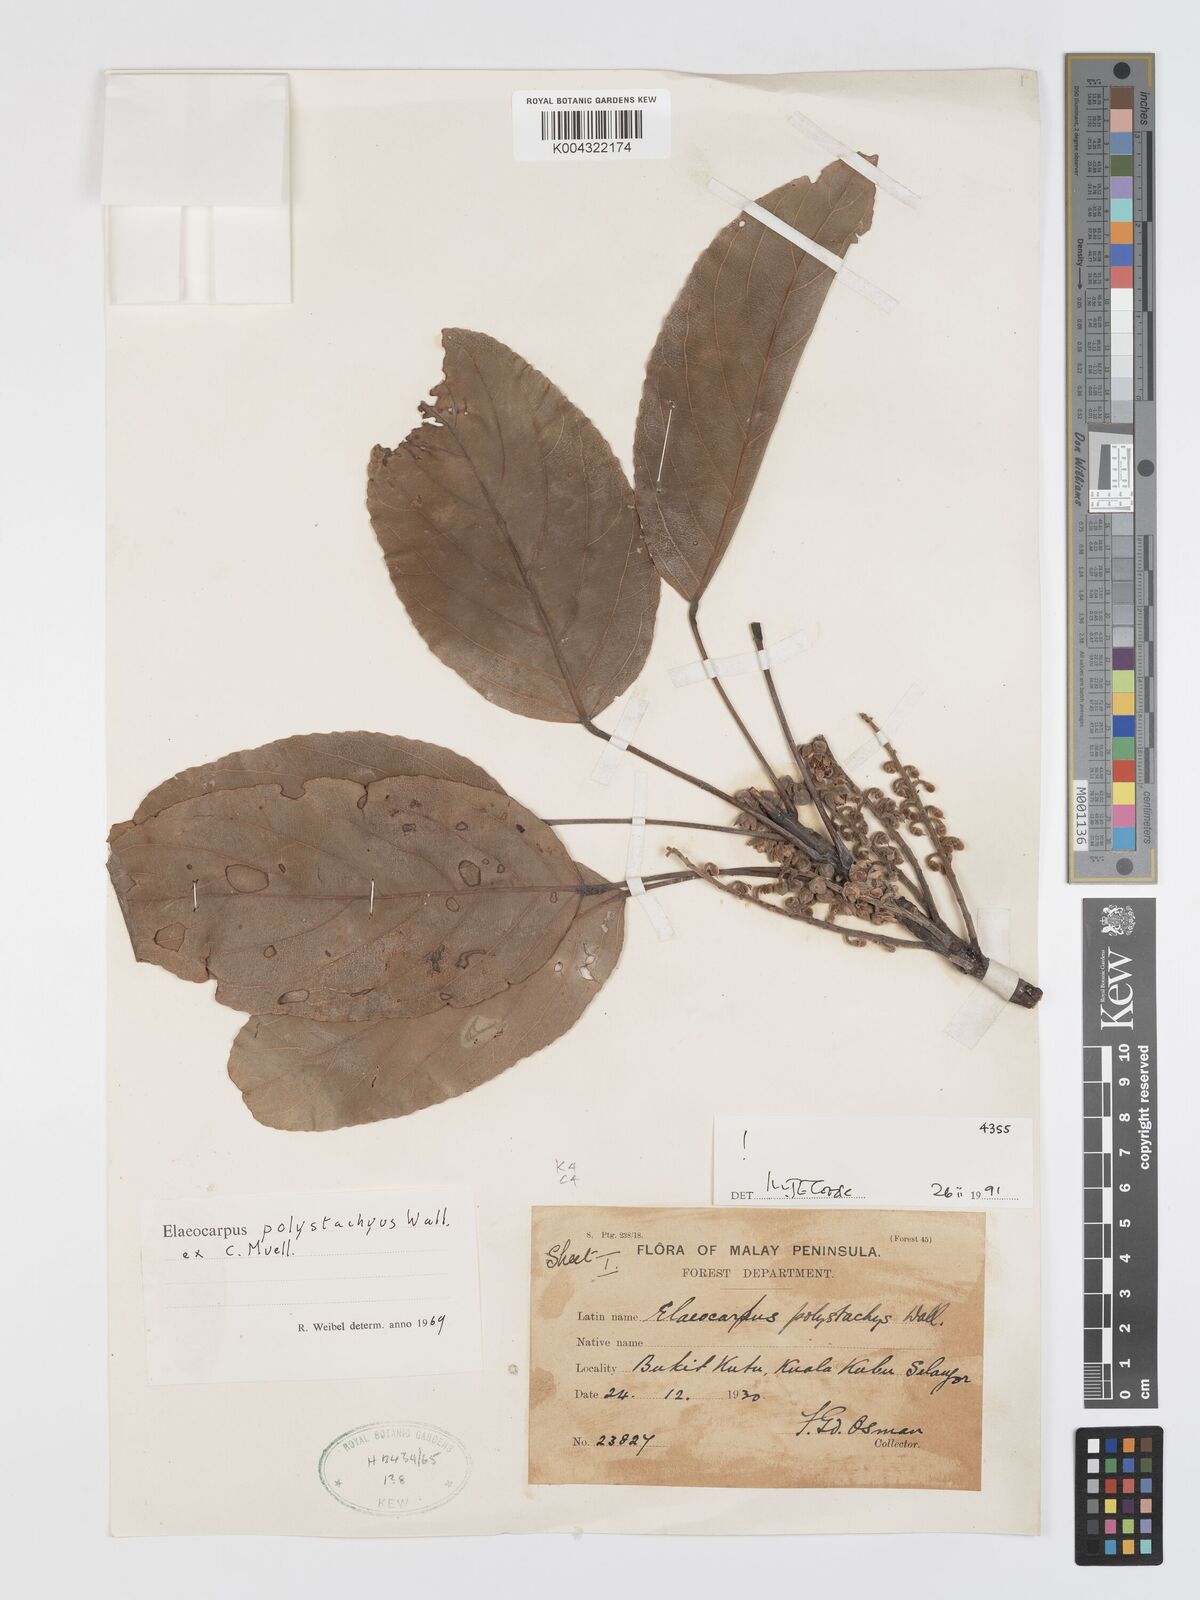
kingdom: Plantae
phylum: Tracheophyta
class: Magnoliopsida
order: Oxalidales
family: Elaeocarpaceae
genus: Elaeocarpus
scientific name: Elaeocarpus polystachyus
